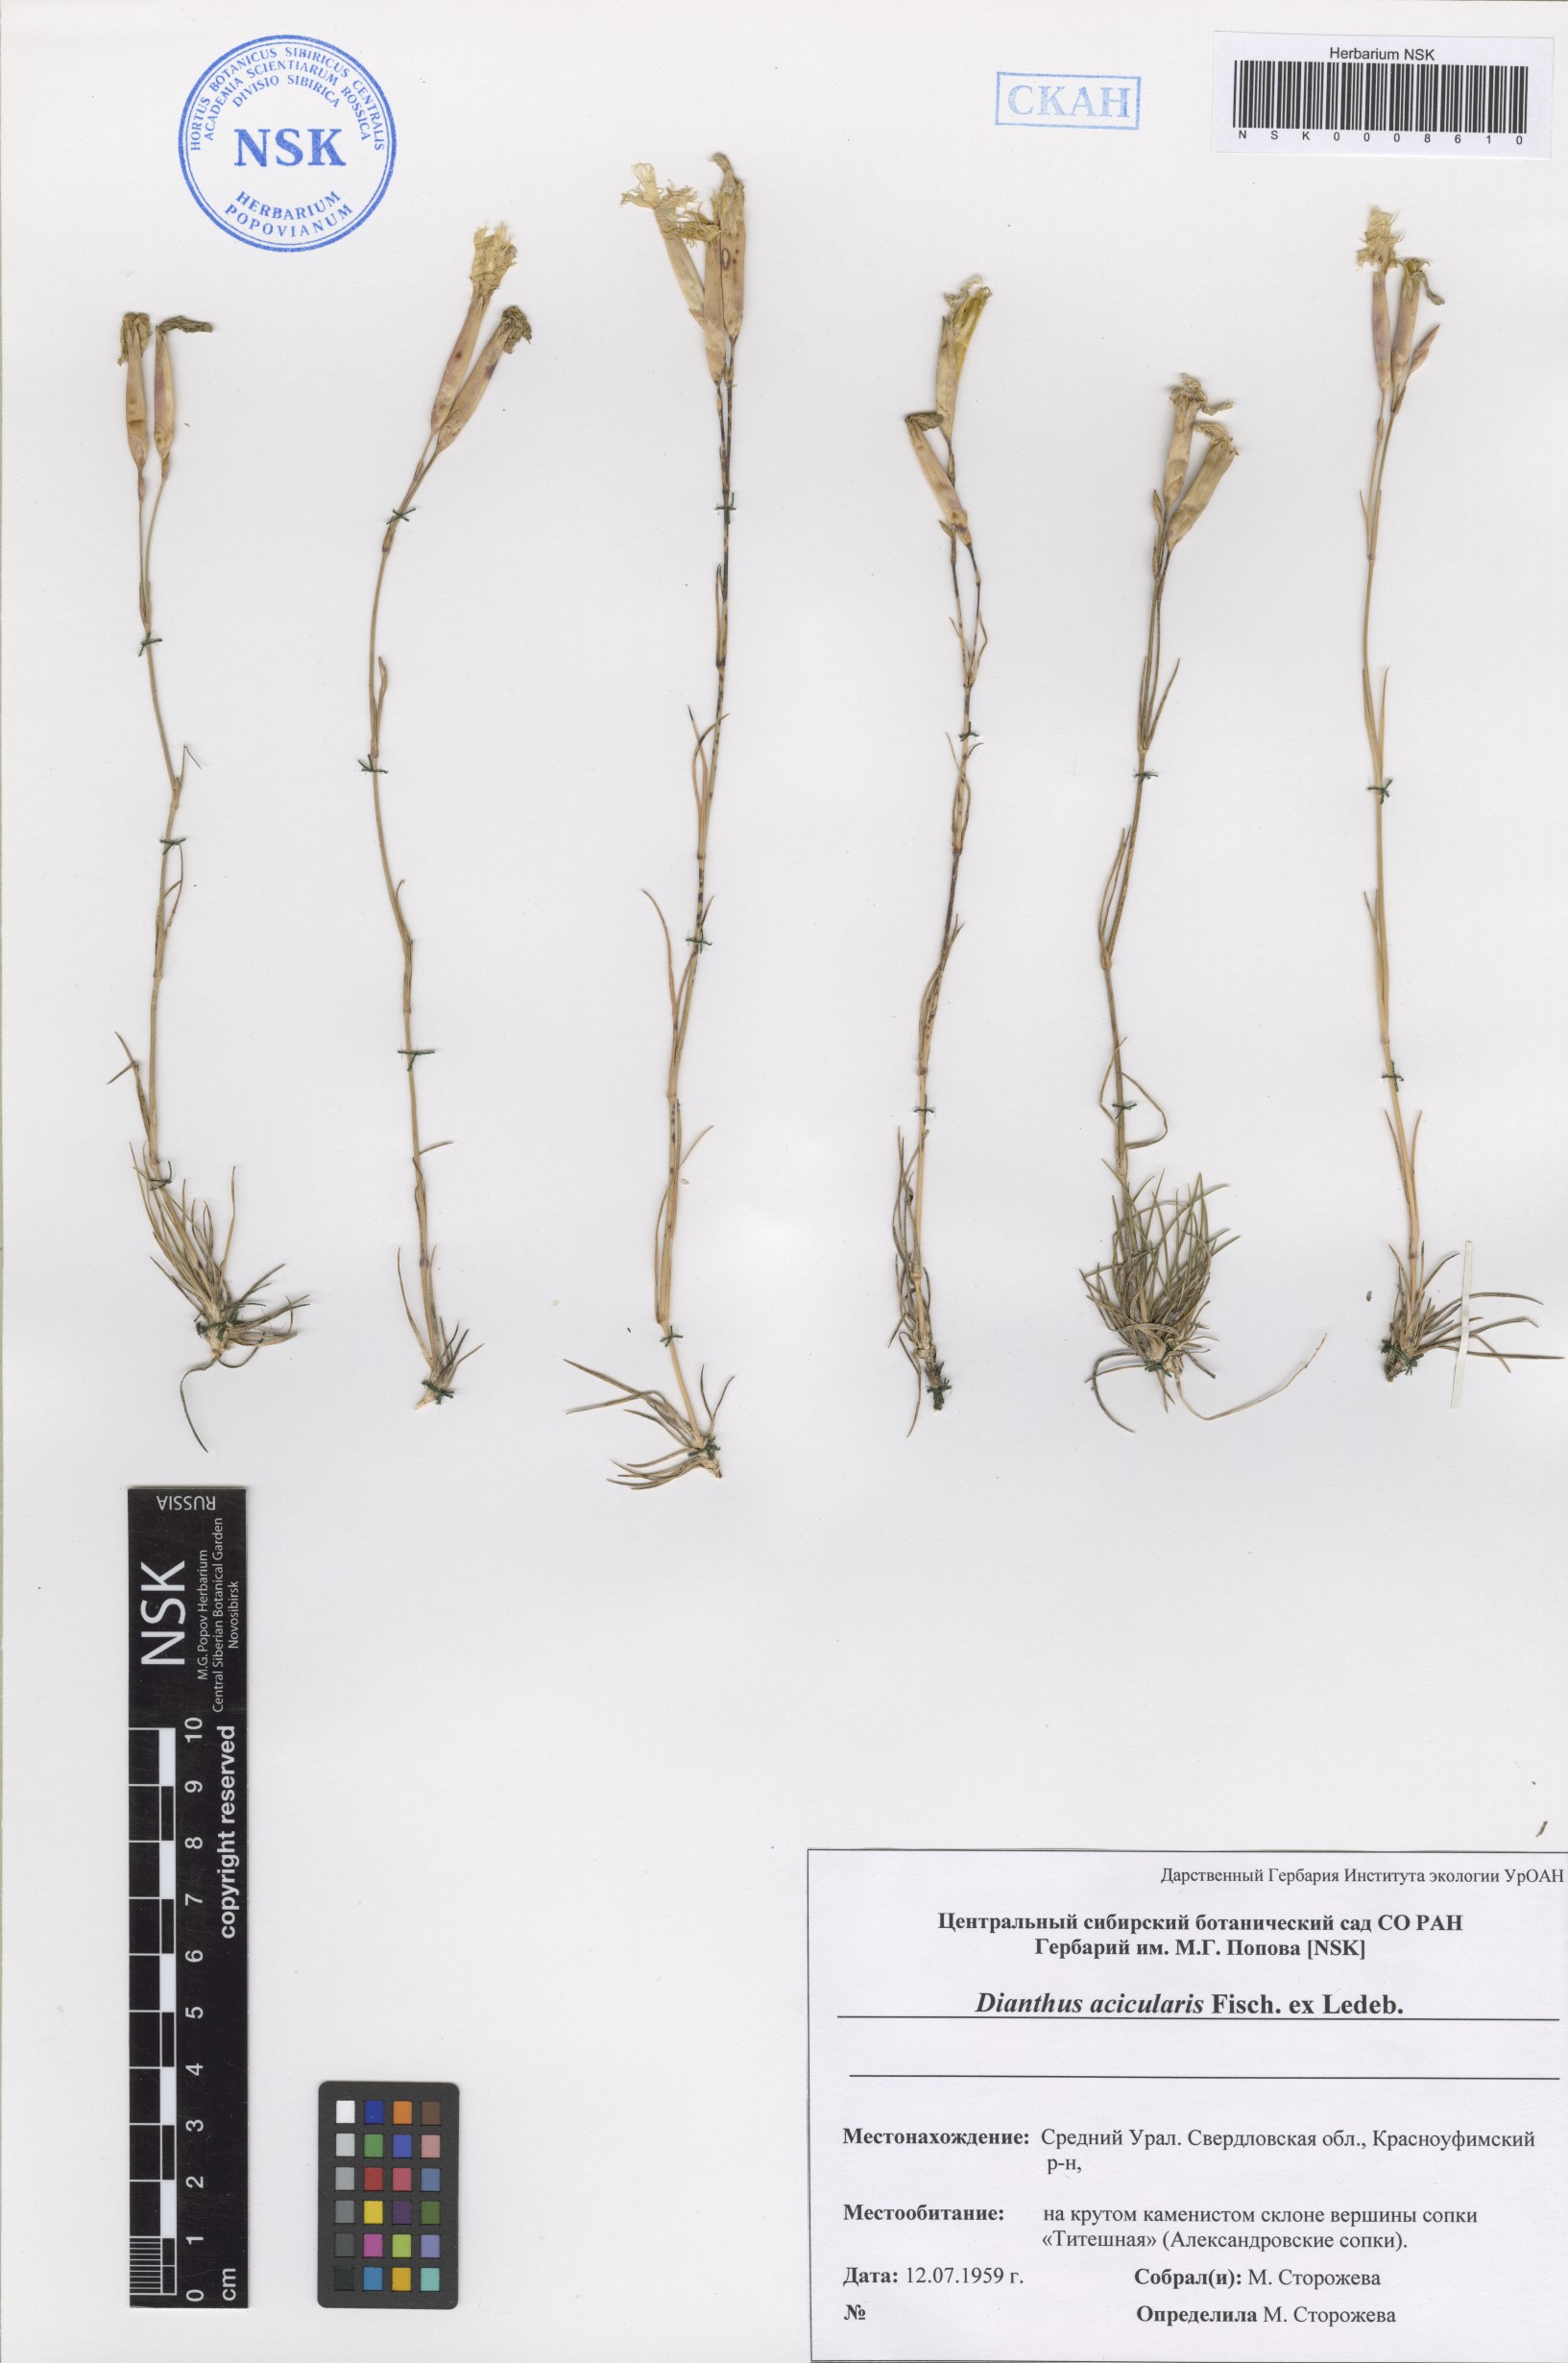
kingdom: Plantae
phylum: Tracheophyta
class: Magnoliopsida
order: Caryophyllales
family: Caryophyllaceae
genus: Dianthus
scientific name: Dianthus acicularis
